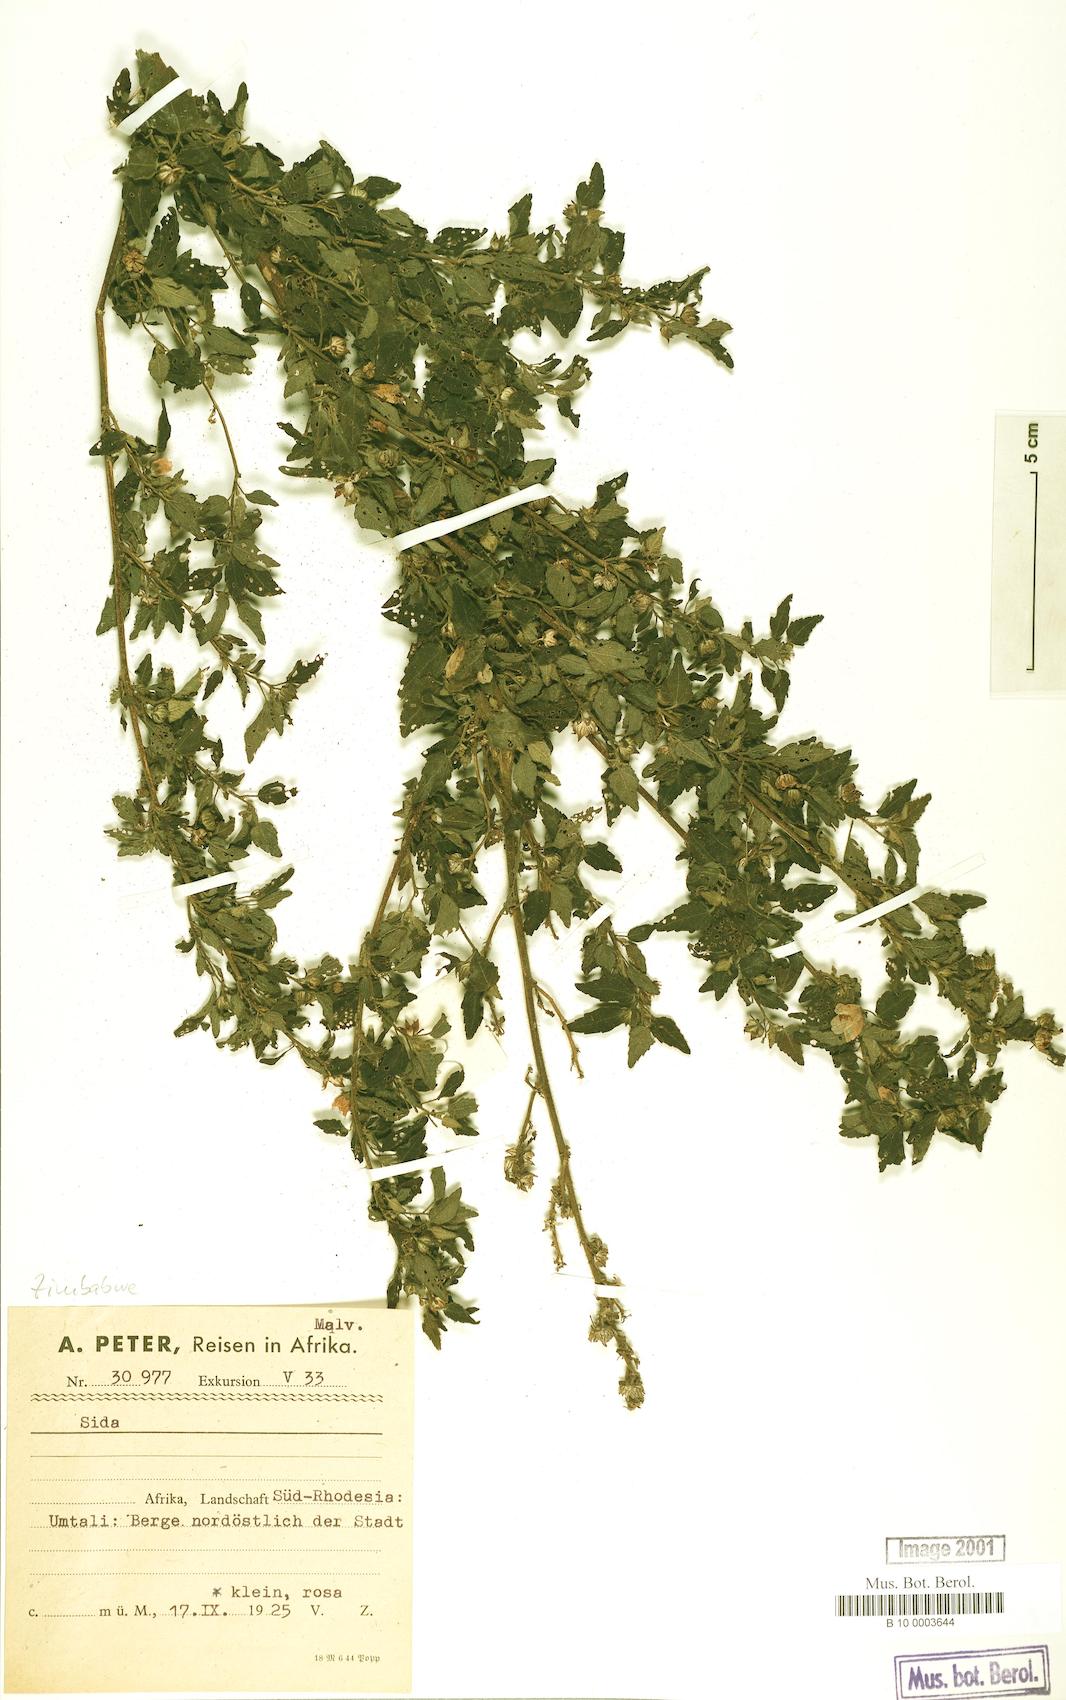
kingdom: Plantae
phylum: Tracheophyta
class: Magnoliopsida
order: Malvales
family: Malvaceae
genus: Pavonia
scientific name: Pavonia columella
